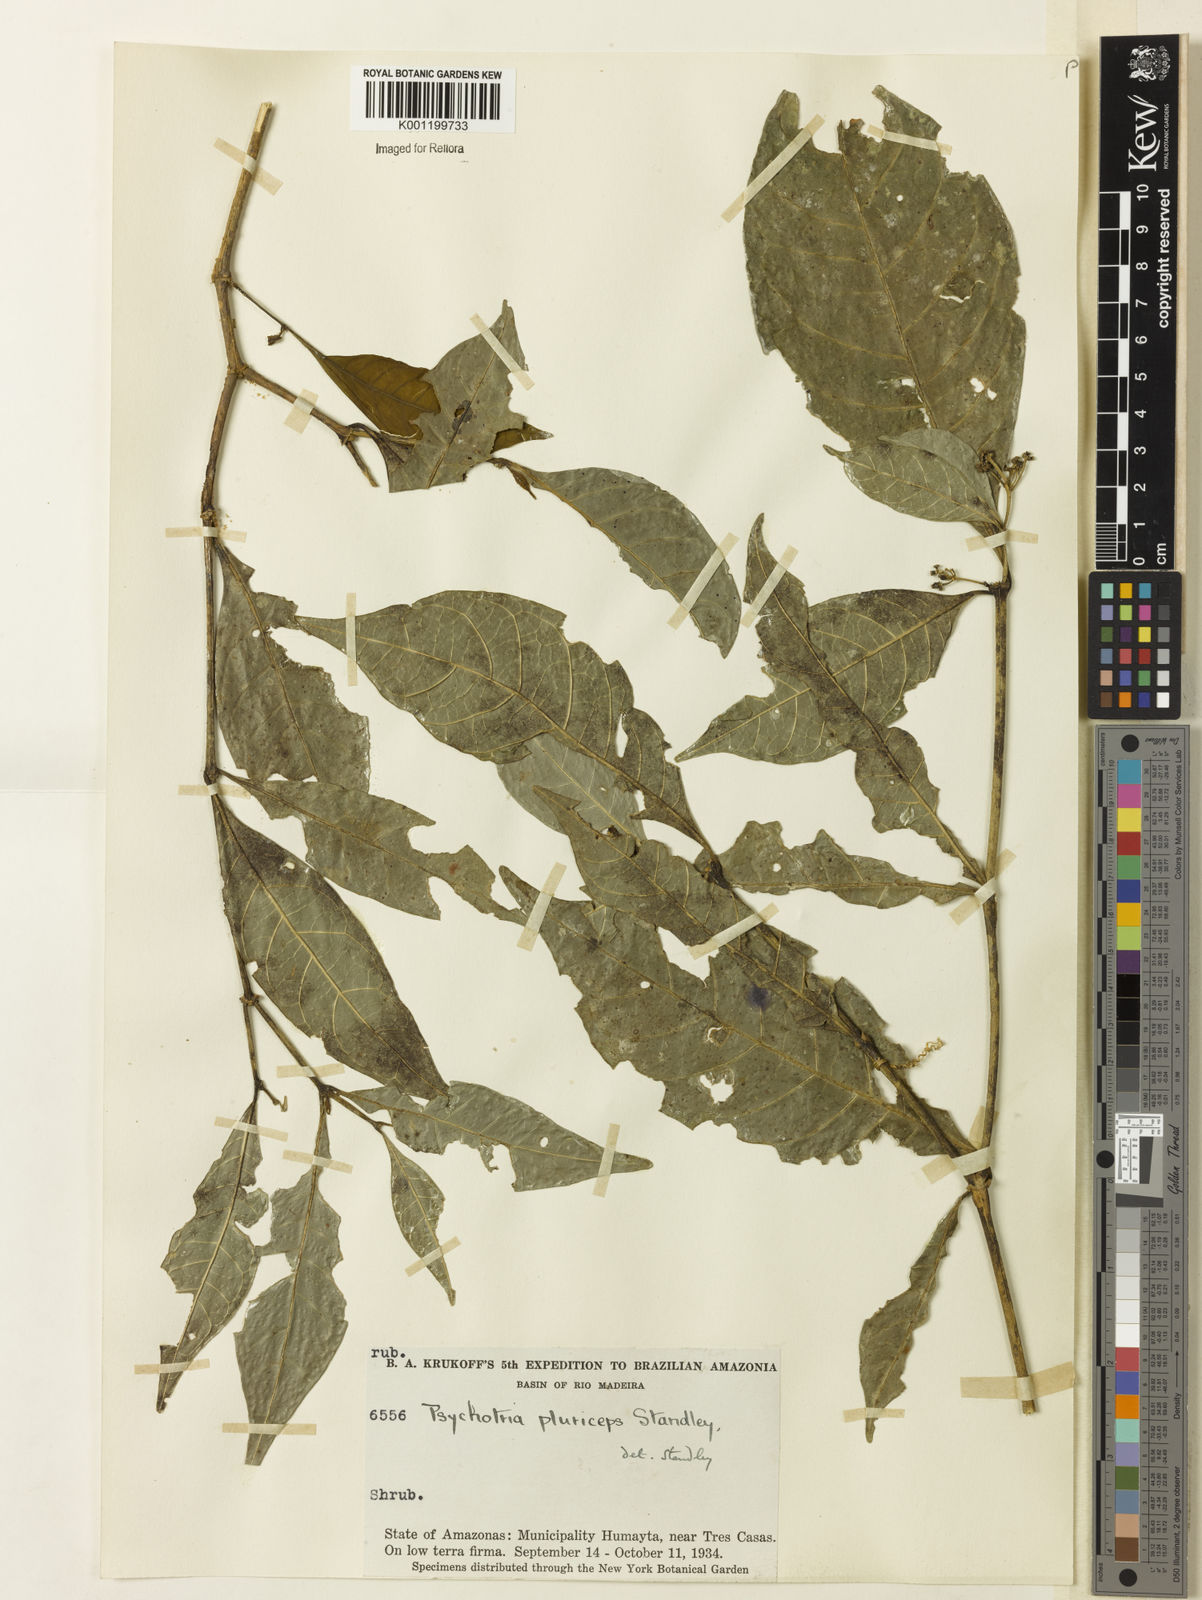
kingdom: Plantae
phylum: Tracheophyta
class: Magnoliopsida
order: Gentianales
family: Rubiaceae
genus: Psychotria
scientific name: Psychotria pluriceps
